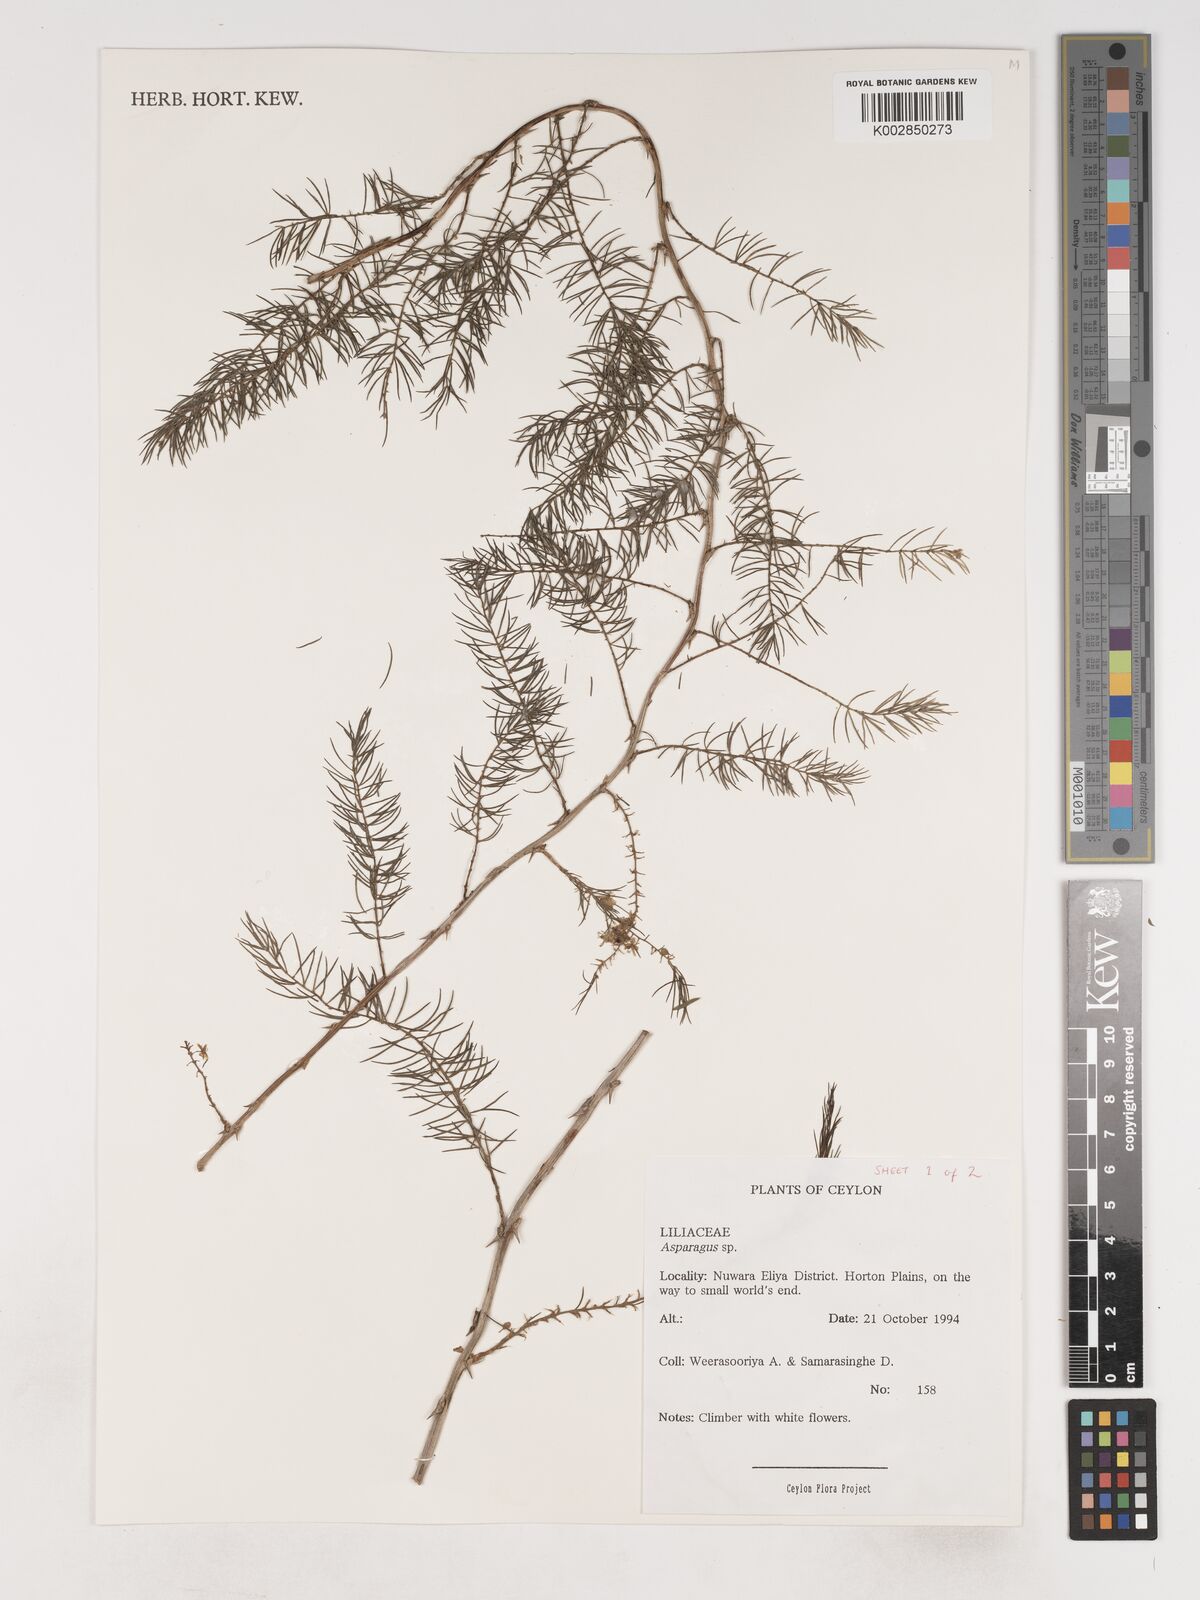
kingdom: Plantae
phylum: Tracheophyta
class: Liliopsida
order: Asparagales
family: Asparagaceae
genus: Asparagus
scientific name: Asparagus
